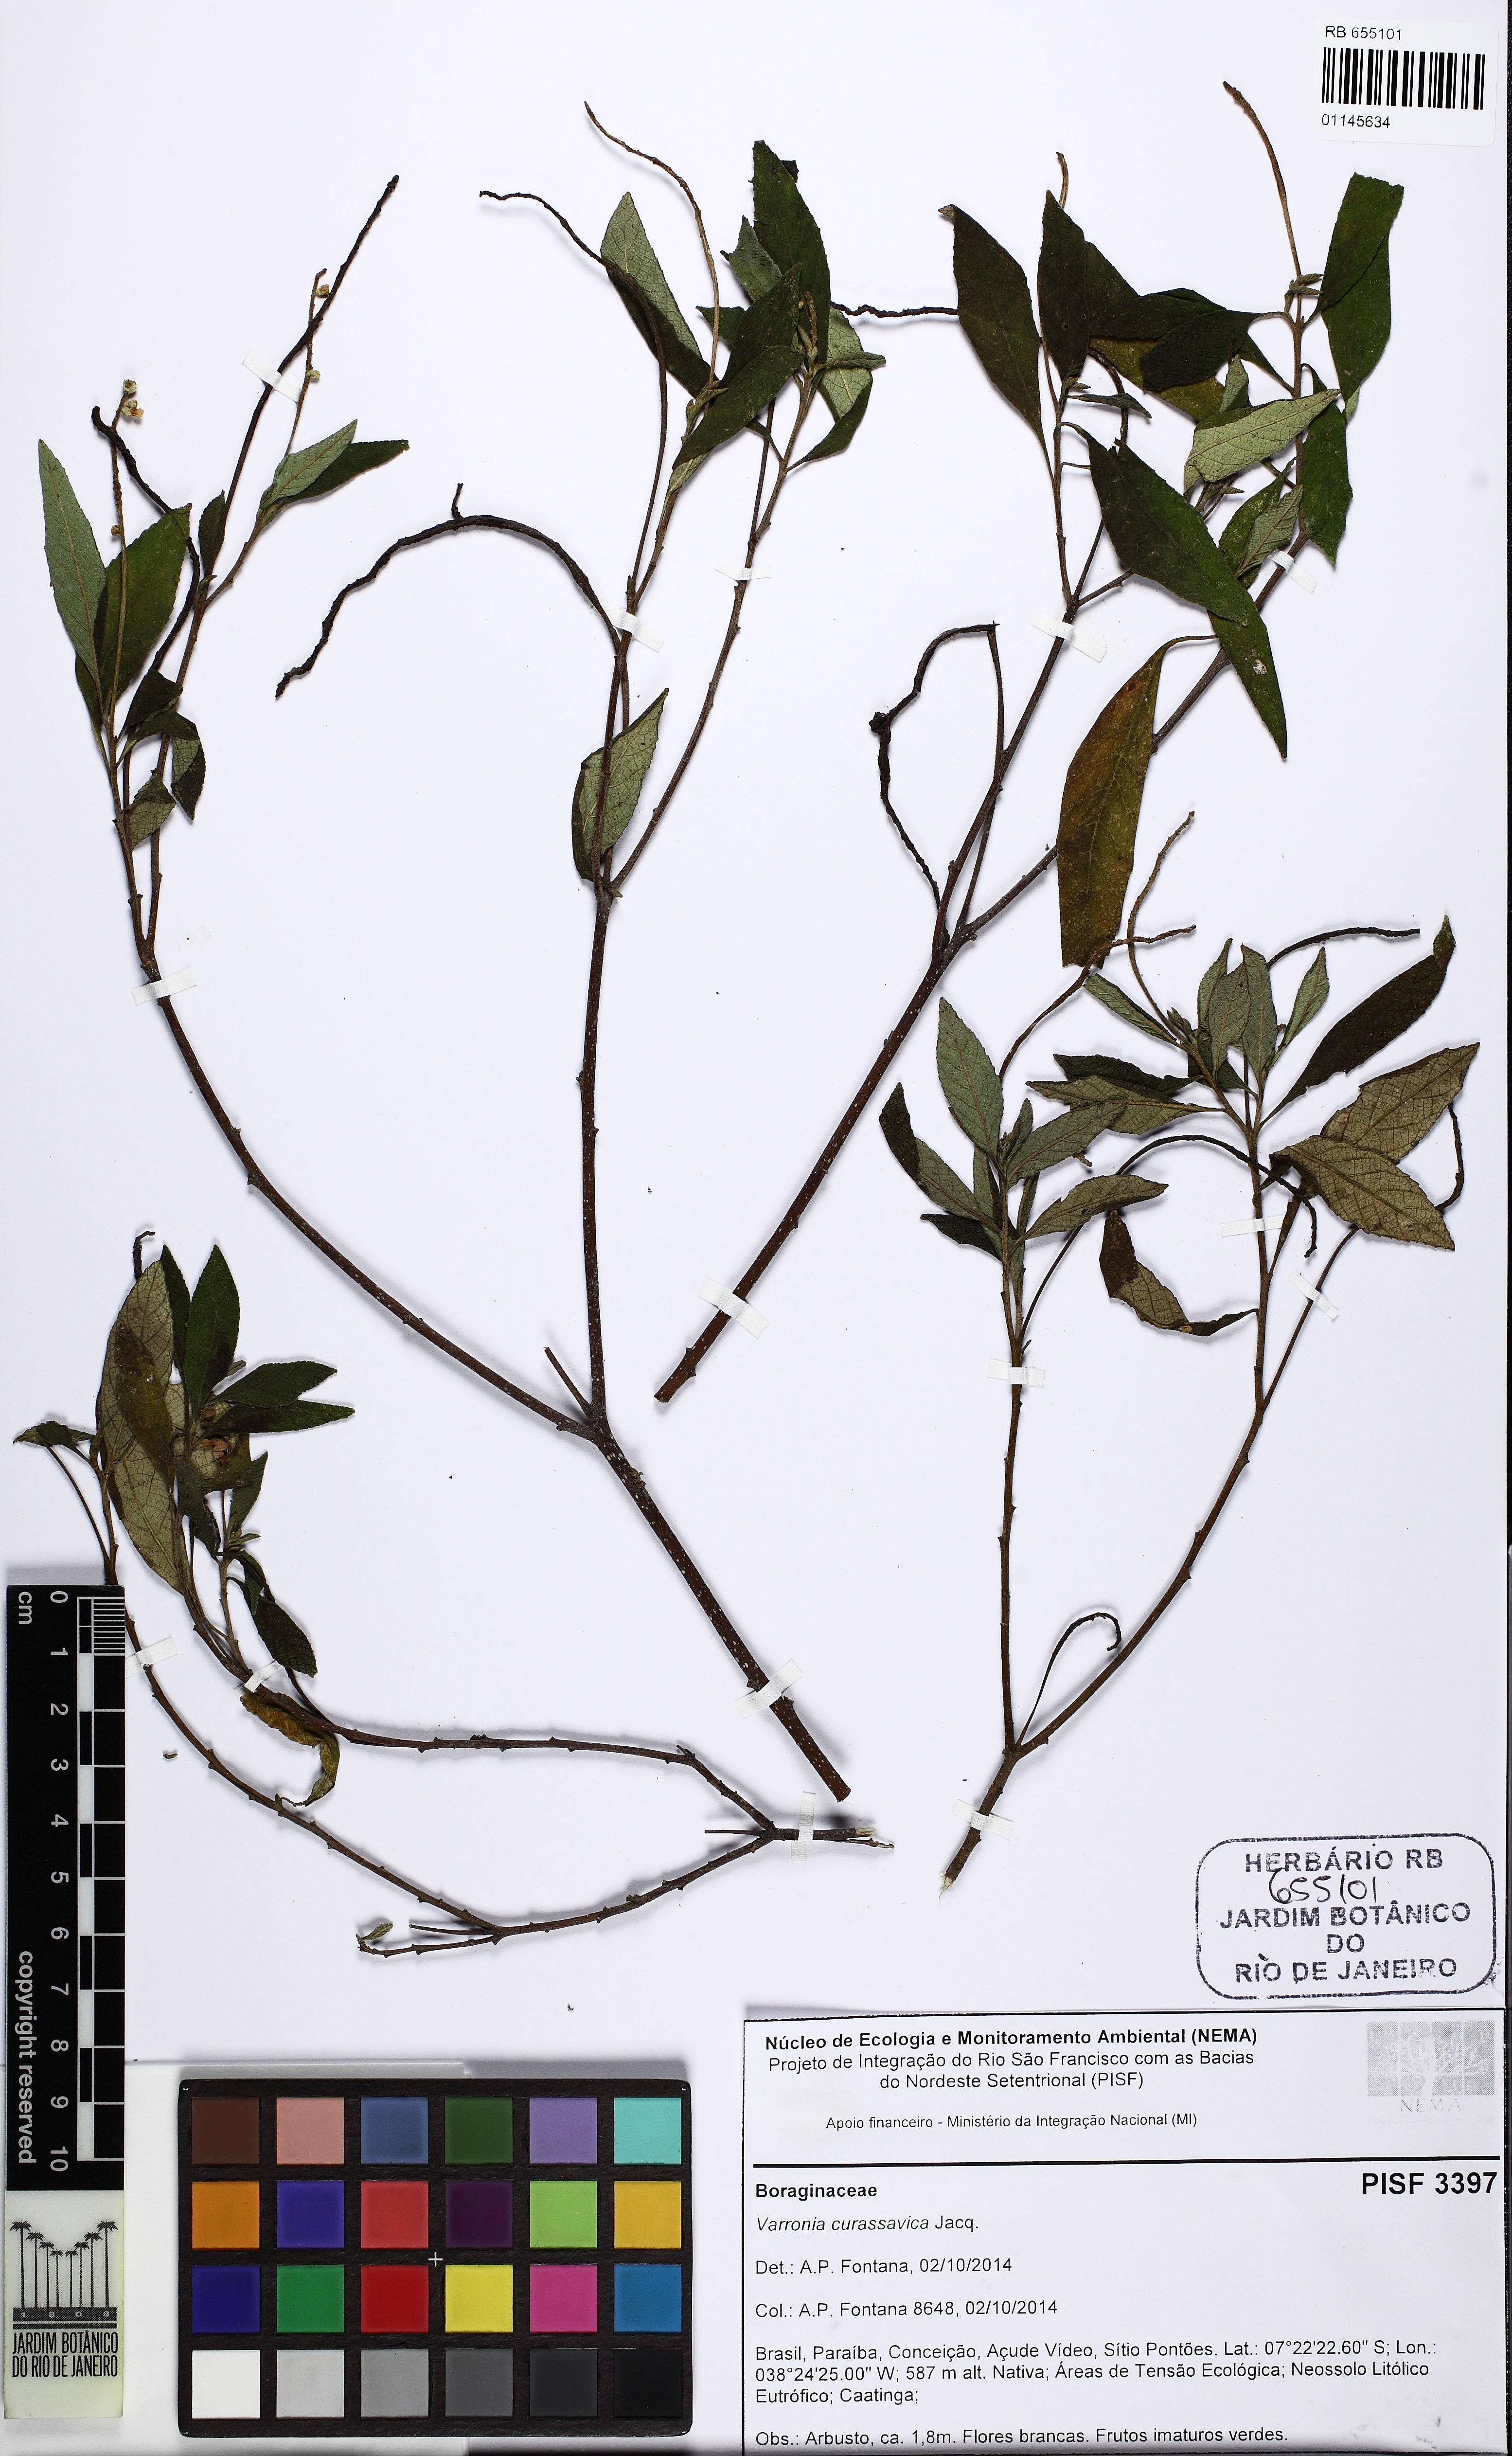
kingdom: Plantae
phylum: Tracheophyta
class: Magnoliopsida
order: Boraginales
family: Cordiaceae
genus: Varronia
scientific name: Varronia curassavica
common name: Black sage
